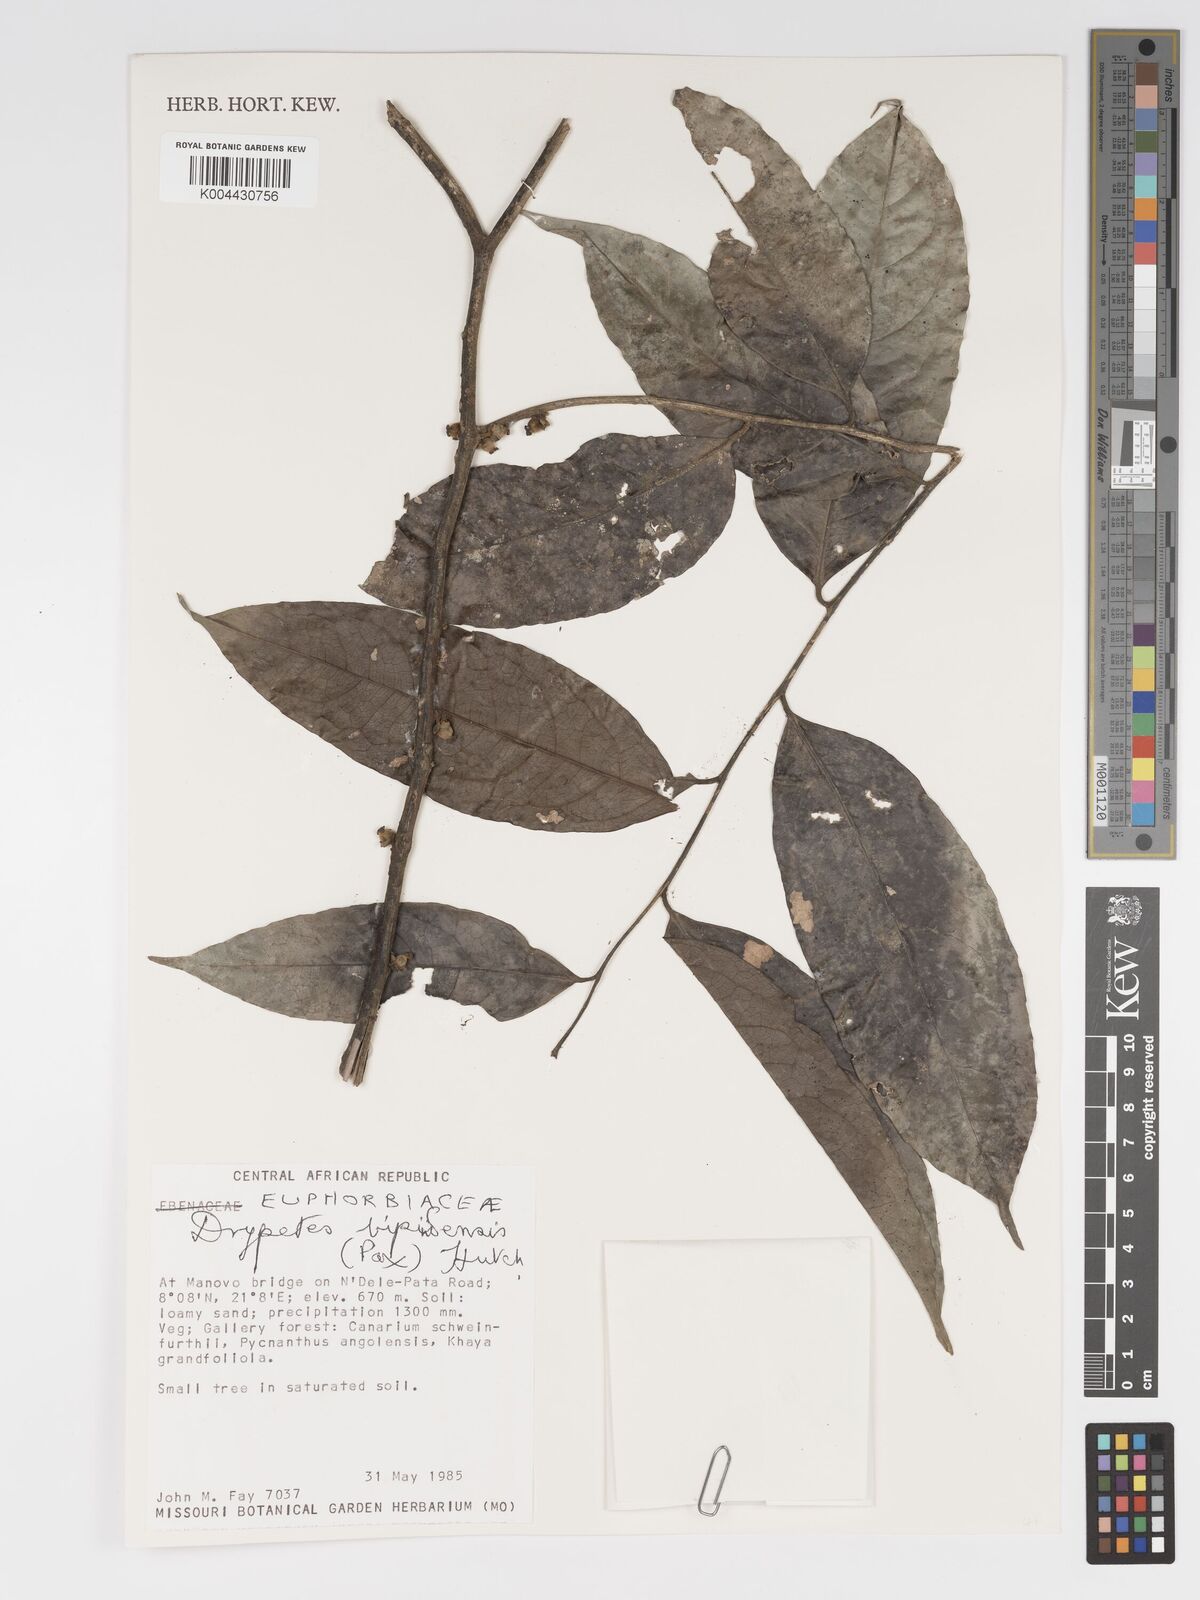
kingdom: Plantae
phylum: Tracheophyta
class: Magnoliopsida
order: Malpighiales
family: Putranjivaceae
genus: Drypetes
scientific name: Drypetes bipindensis
